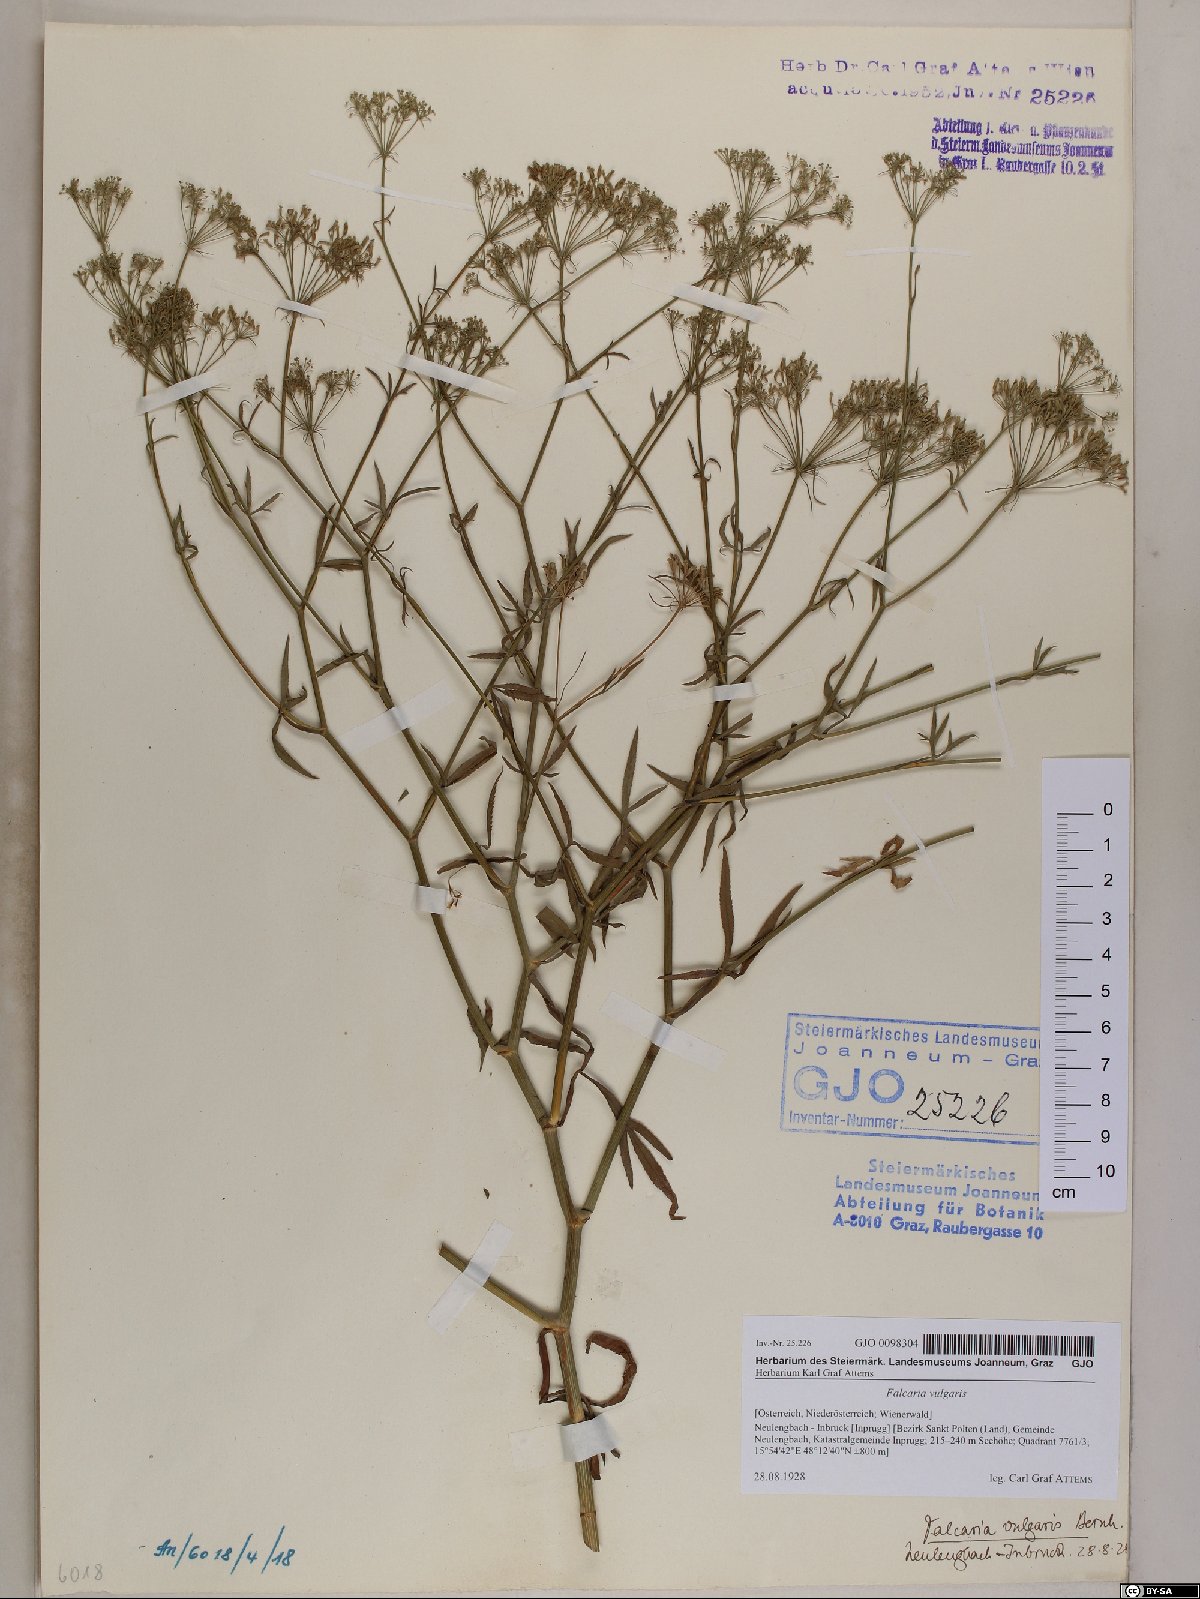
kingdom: Plantae
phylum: Tracheophyta
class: Magnoliopsida
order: Apiales
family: Apiaceae
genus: Falcaria
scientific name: Falcaria vulgaris
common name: Longleaf
